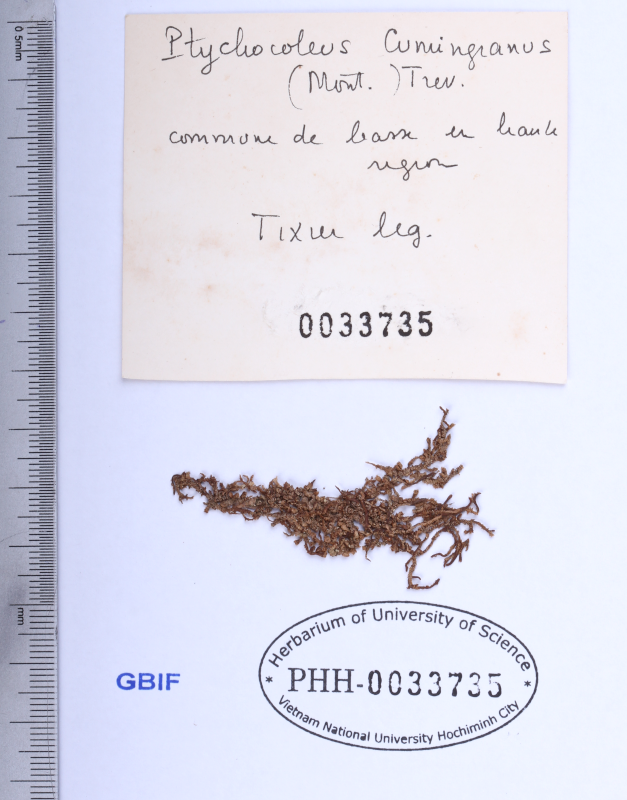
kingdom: Plantae
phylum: Marchantiophyta
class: Jungermanniopsida
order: Porellales
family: Lejeuneaceae
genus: Schiffneriolejeunea
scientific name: Schiffneriolejeunea cumingiana
